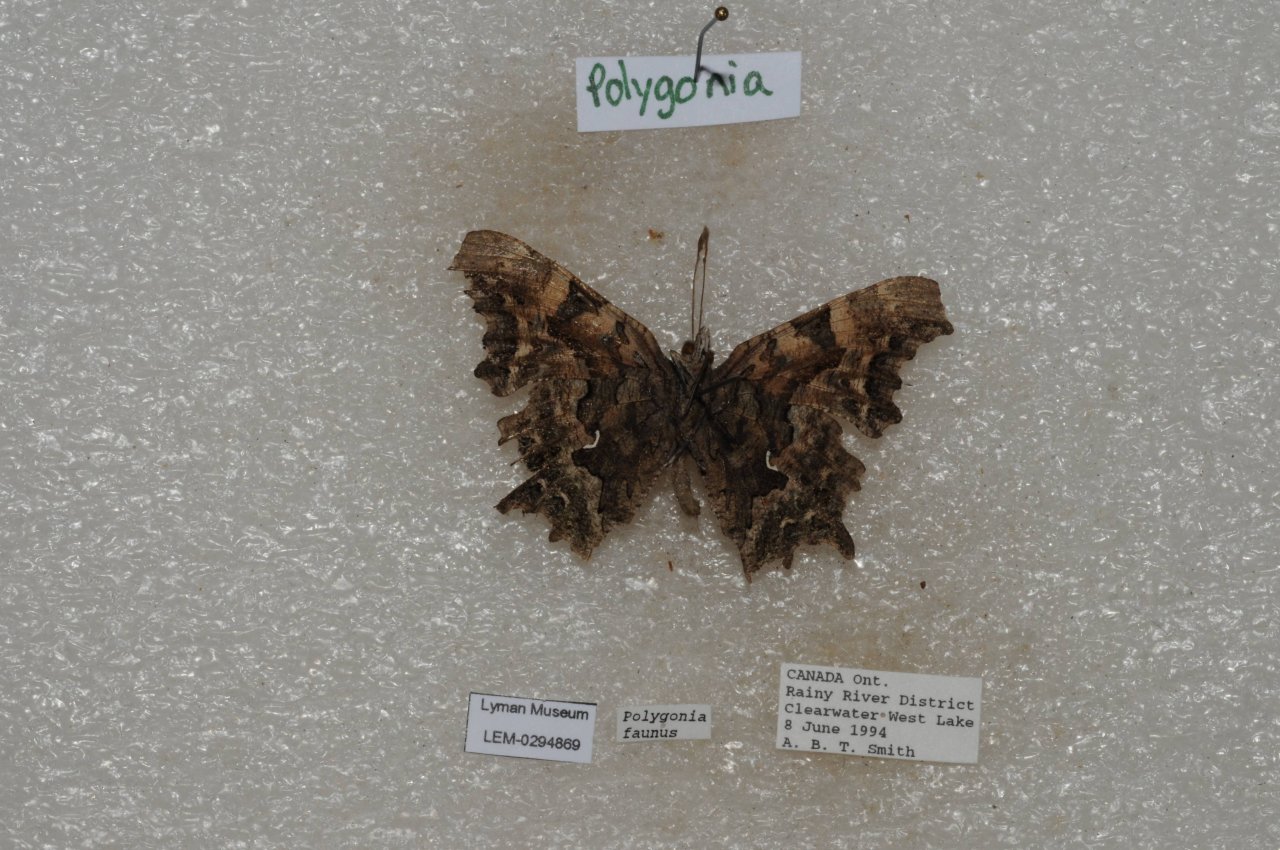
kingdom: Animalia
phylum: Arthropoda
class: Insecta
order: Lepidoptera
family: Nymphalidae
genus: Polygonia
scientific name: Polygonia faunus
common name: Green Comma
